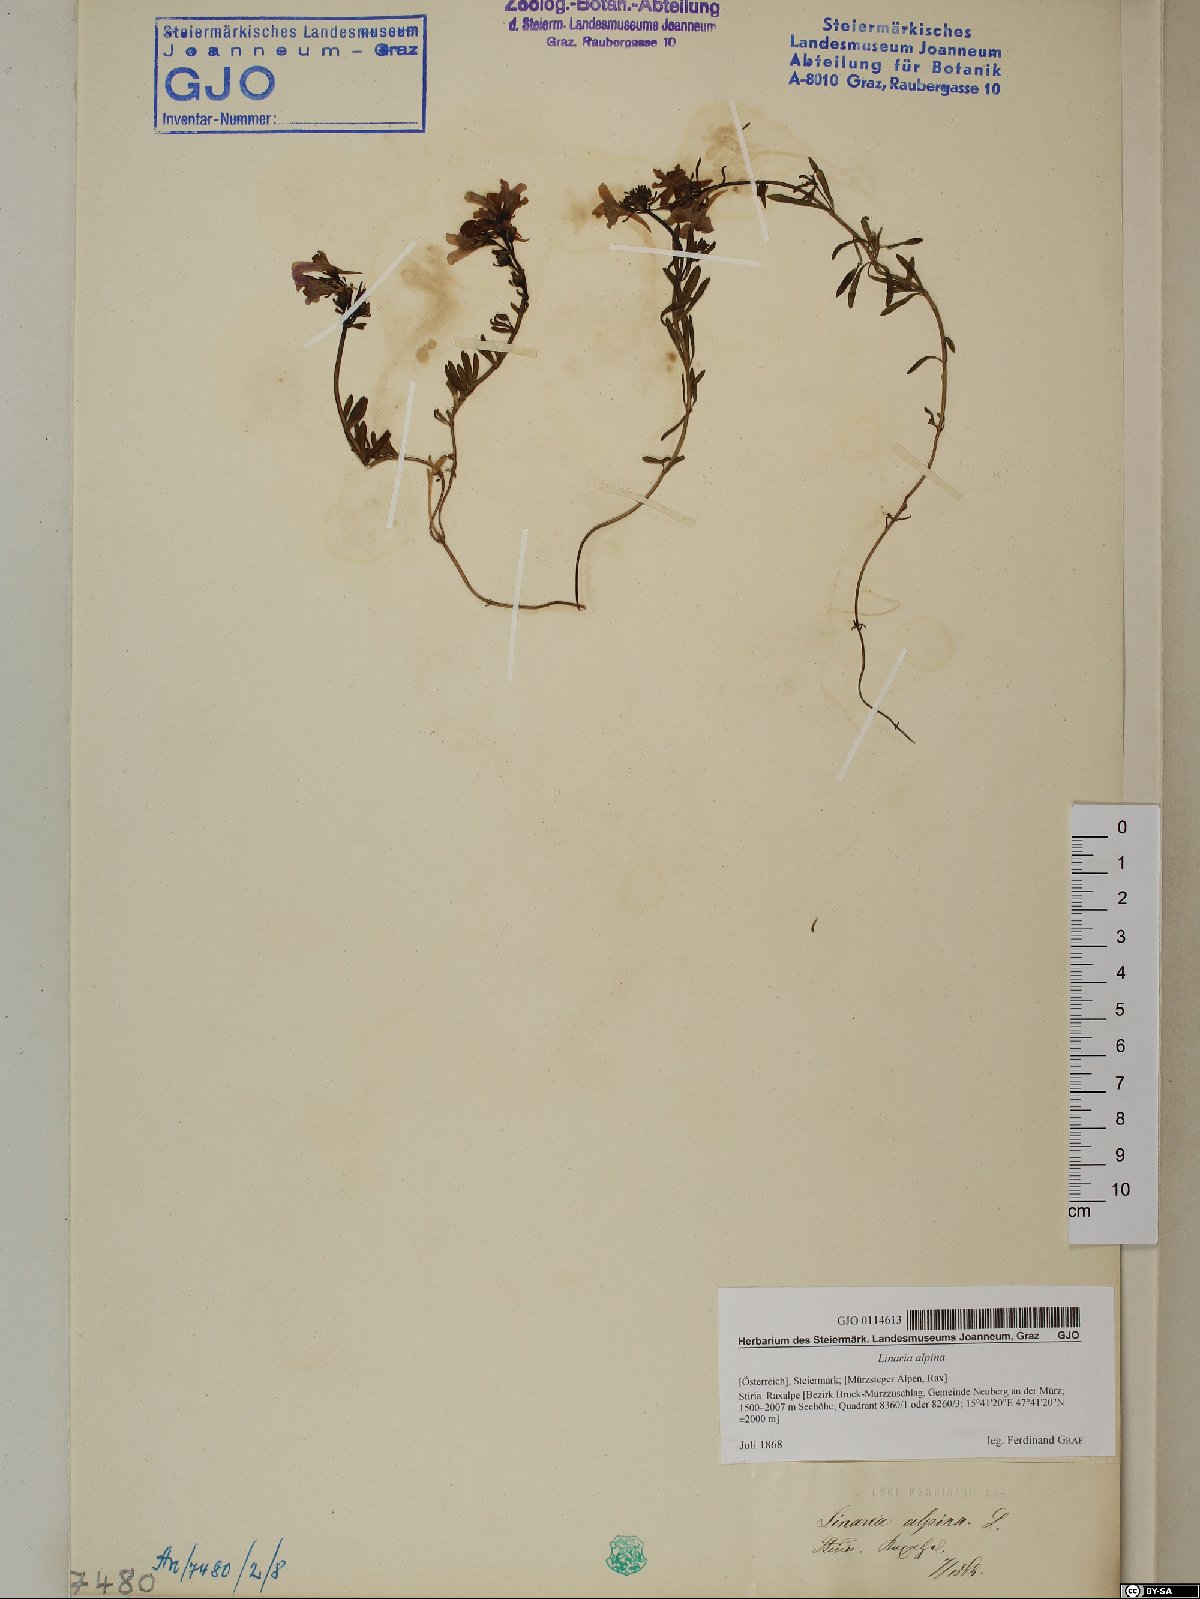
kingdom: Plantae
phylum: Tracheophyta
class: Magnoliopsida
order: Lamiales
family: Plantaginaceae
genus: Linaria
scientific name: Linaria alpina
